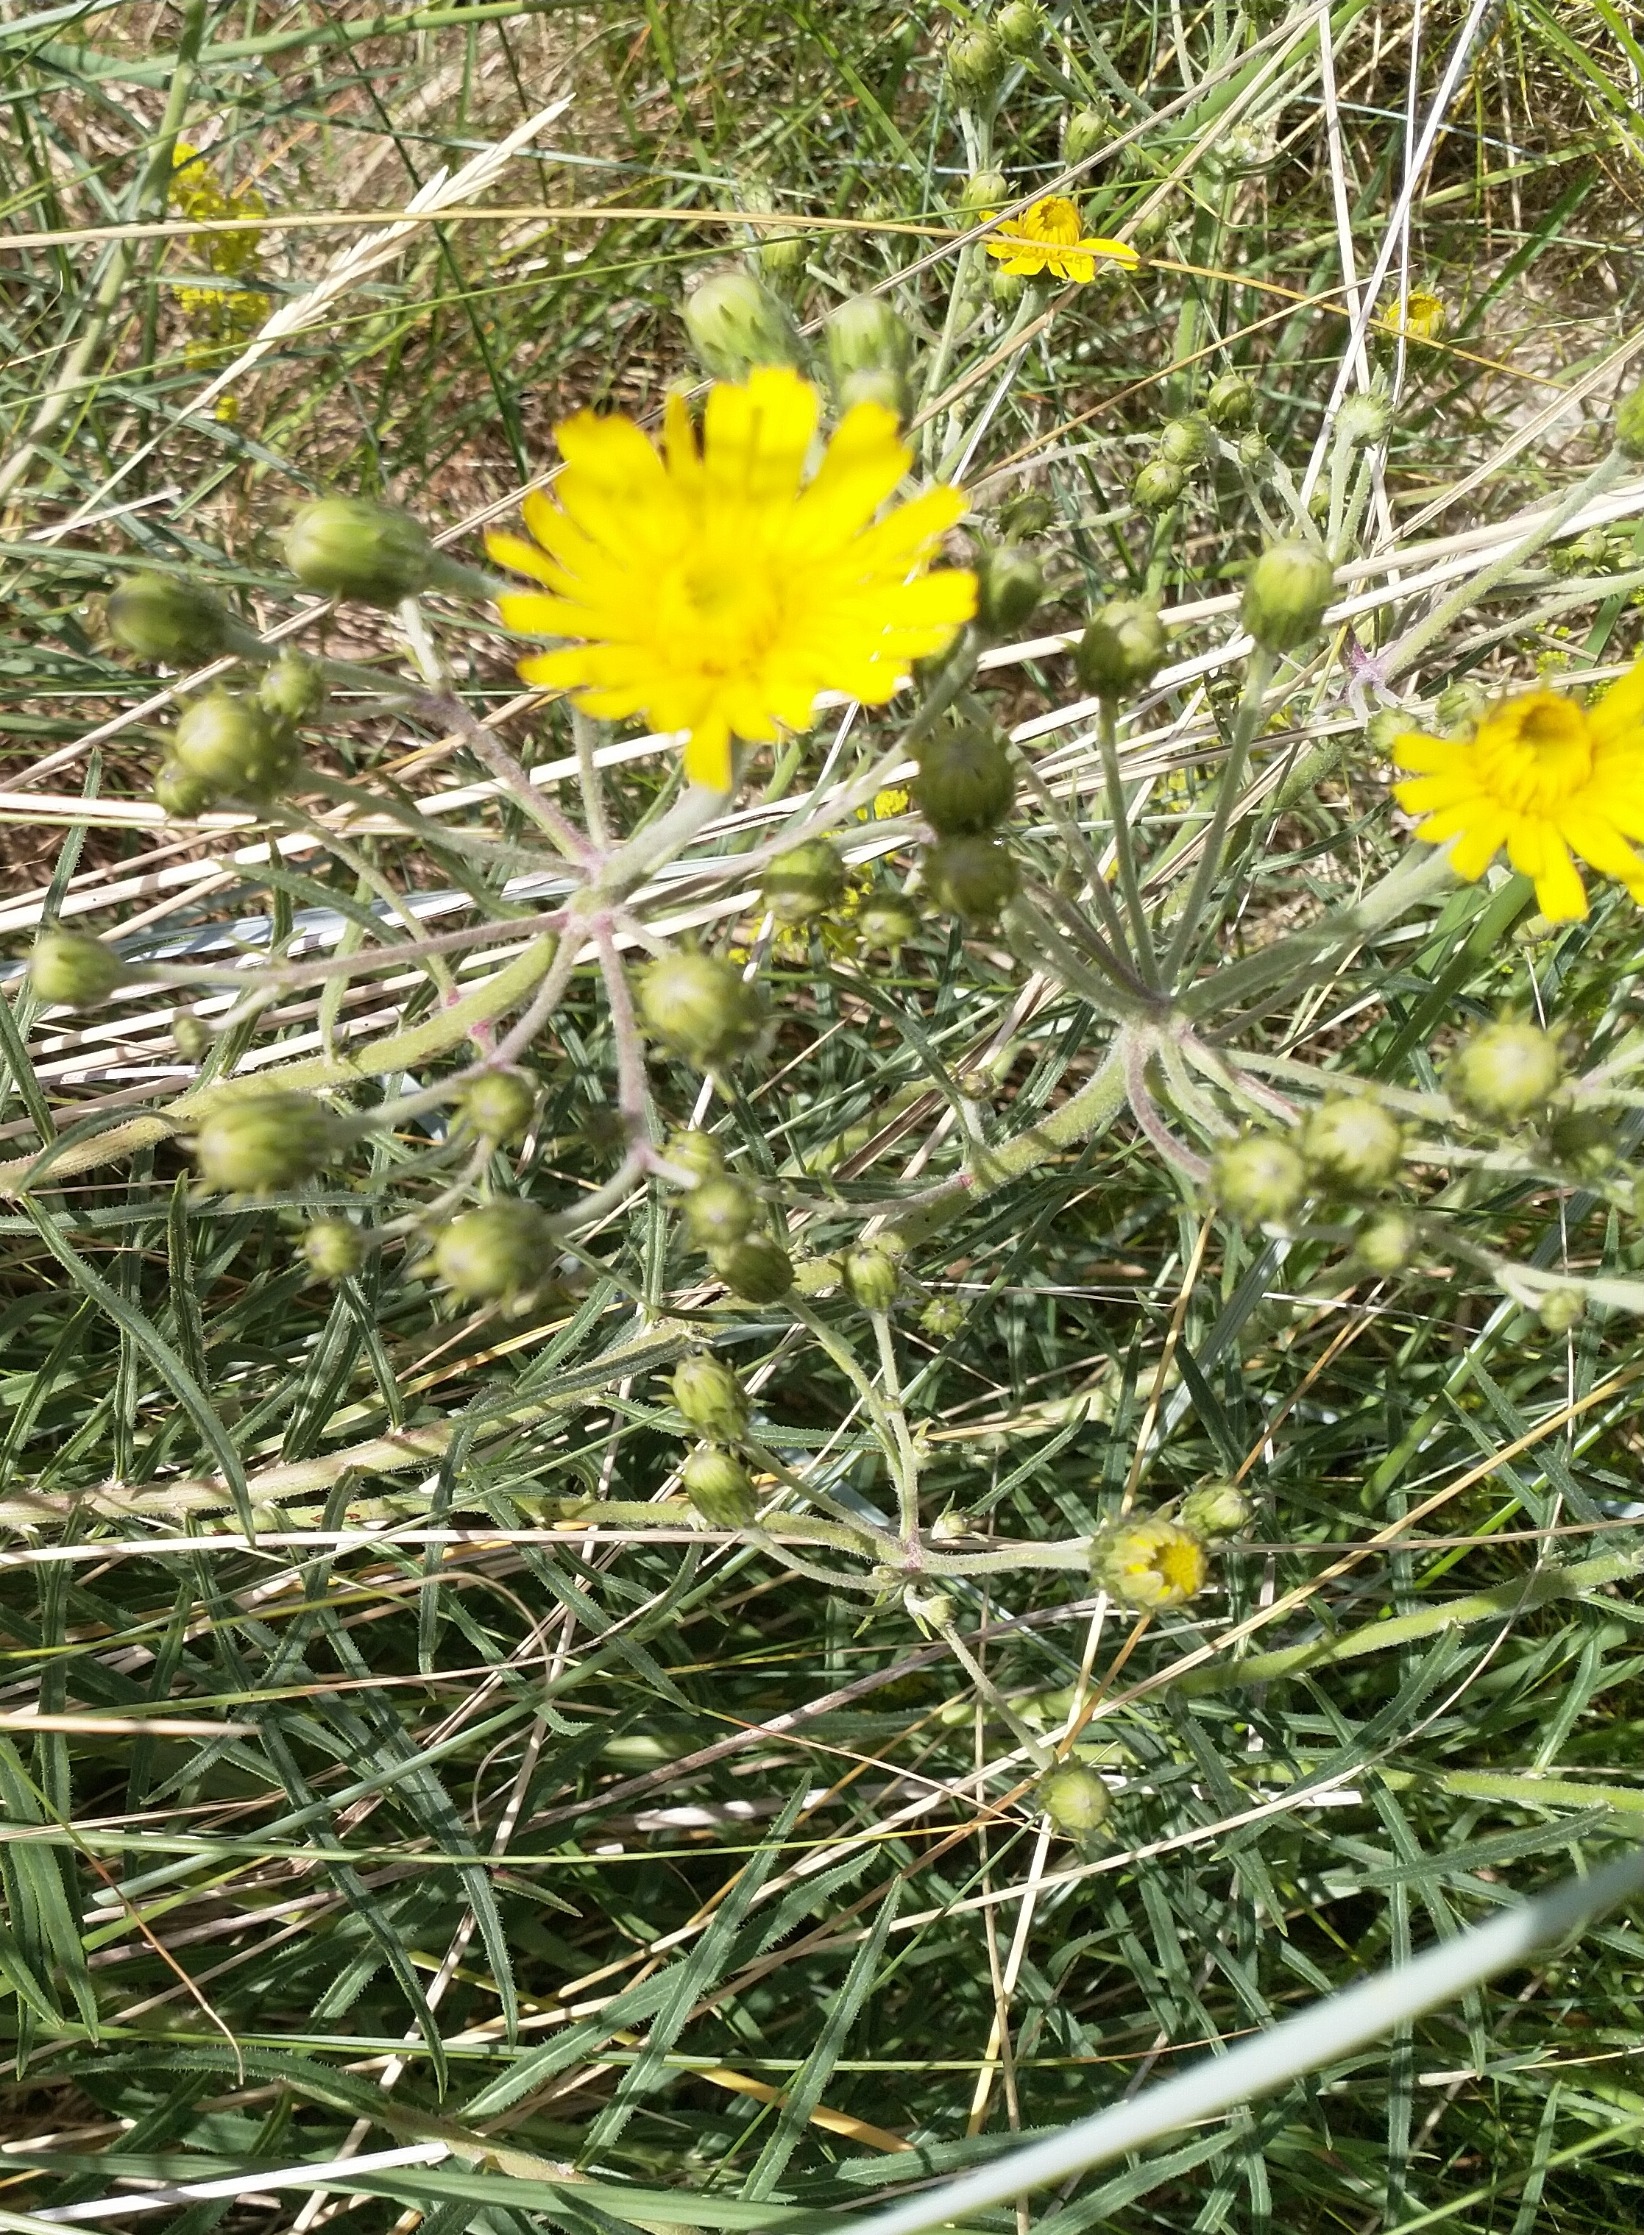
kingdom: Plantae
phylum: Tracheophyta
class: Magnoliopsida
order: Asterales
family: Asteraceae
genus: Hieracium
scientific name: Hieracium umbellatum
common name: Smalbladet høgeurt
